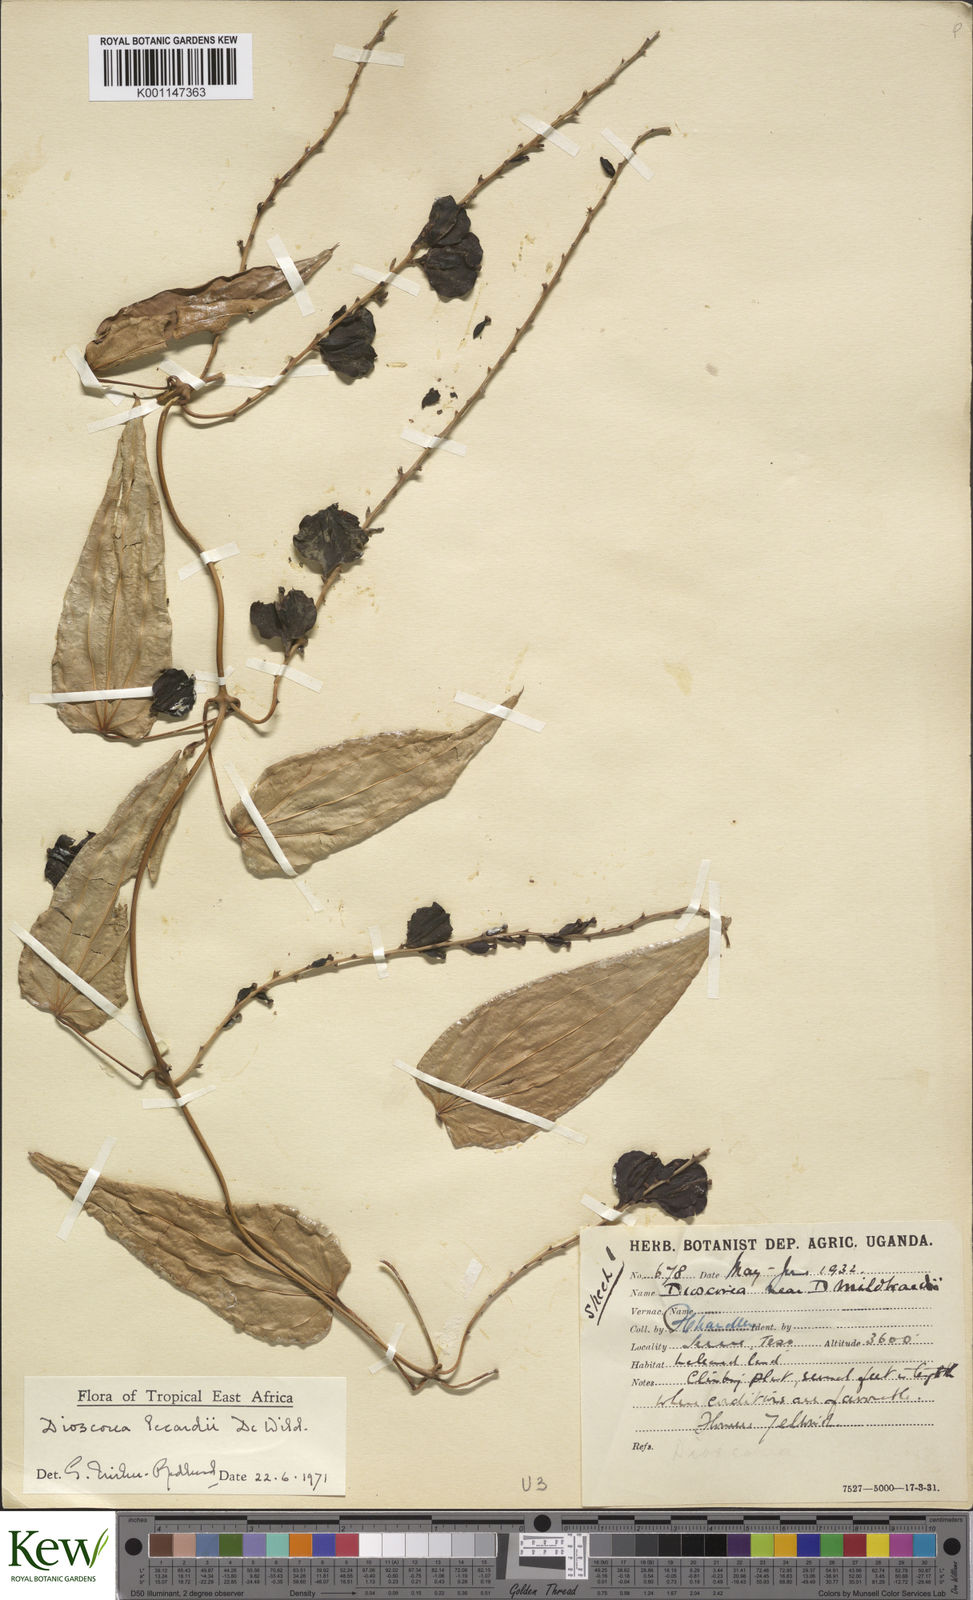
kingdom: Plantae
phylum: Tracheophyta
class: Liliopsida
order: Dioscoreales
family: Dioscoreaceae
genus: Dioscorea
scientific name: Dioscorea sagittifolia
